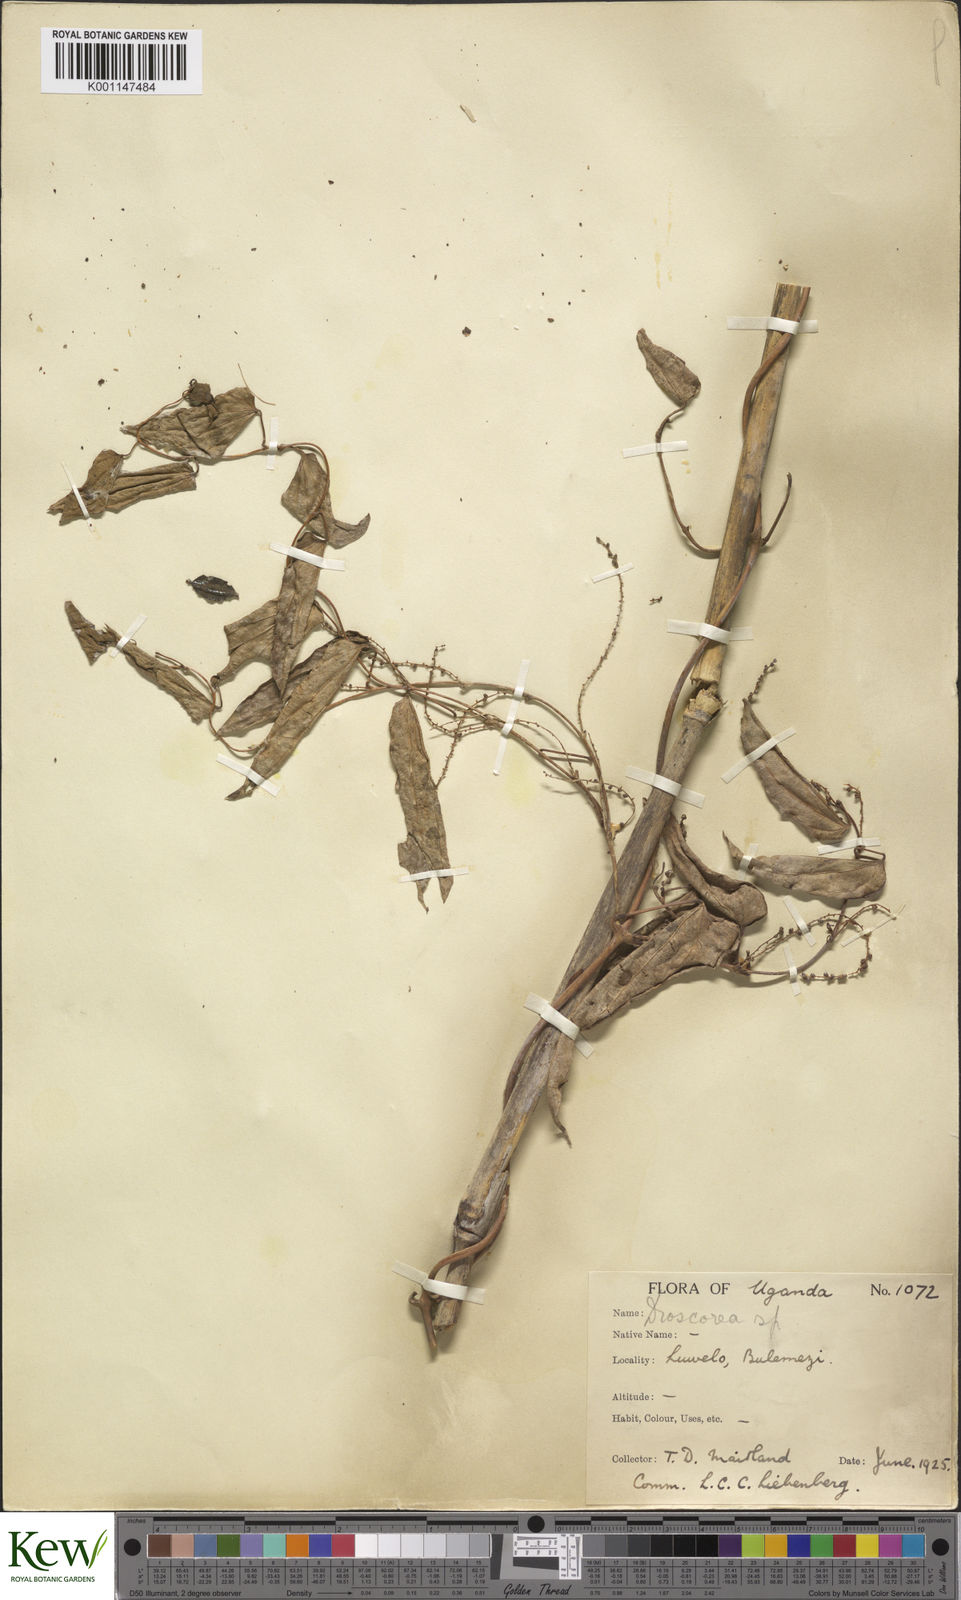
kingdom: Plantae
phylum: Tracheophyta
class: Liliopsida
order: Dioscoreales
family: Dioscoreaceae
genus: Dioscorea
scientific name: Dioscorea
